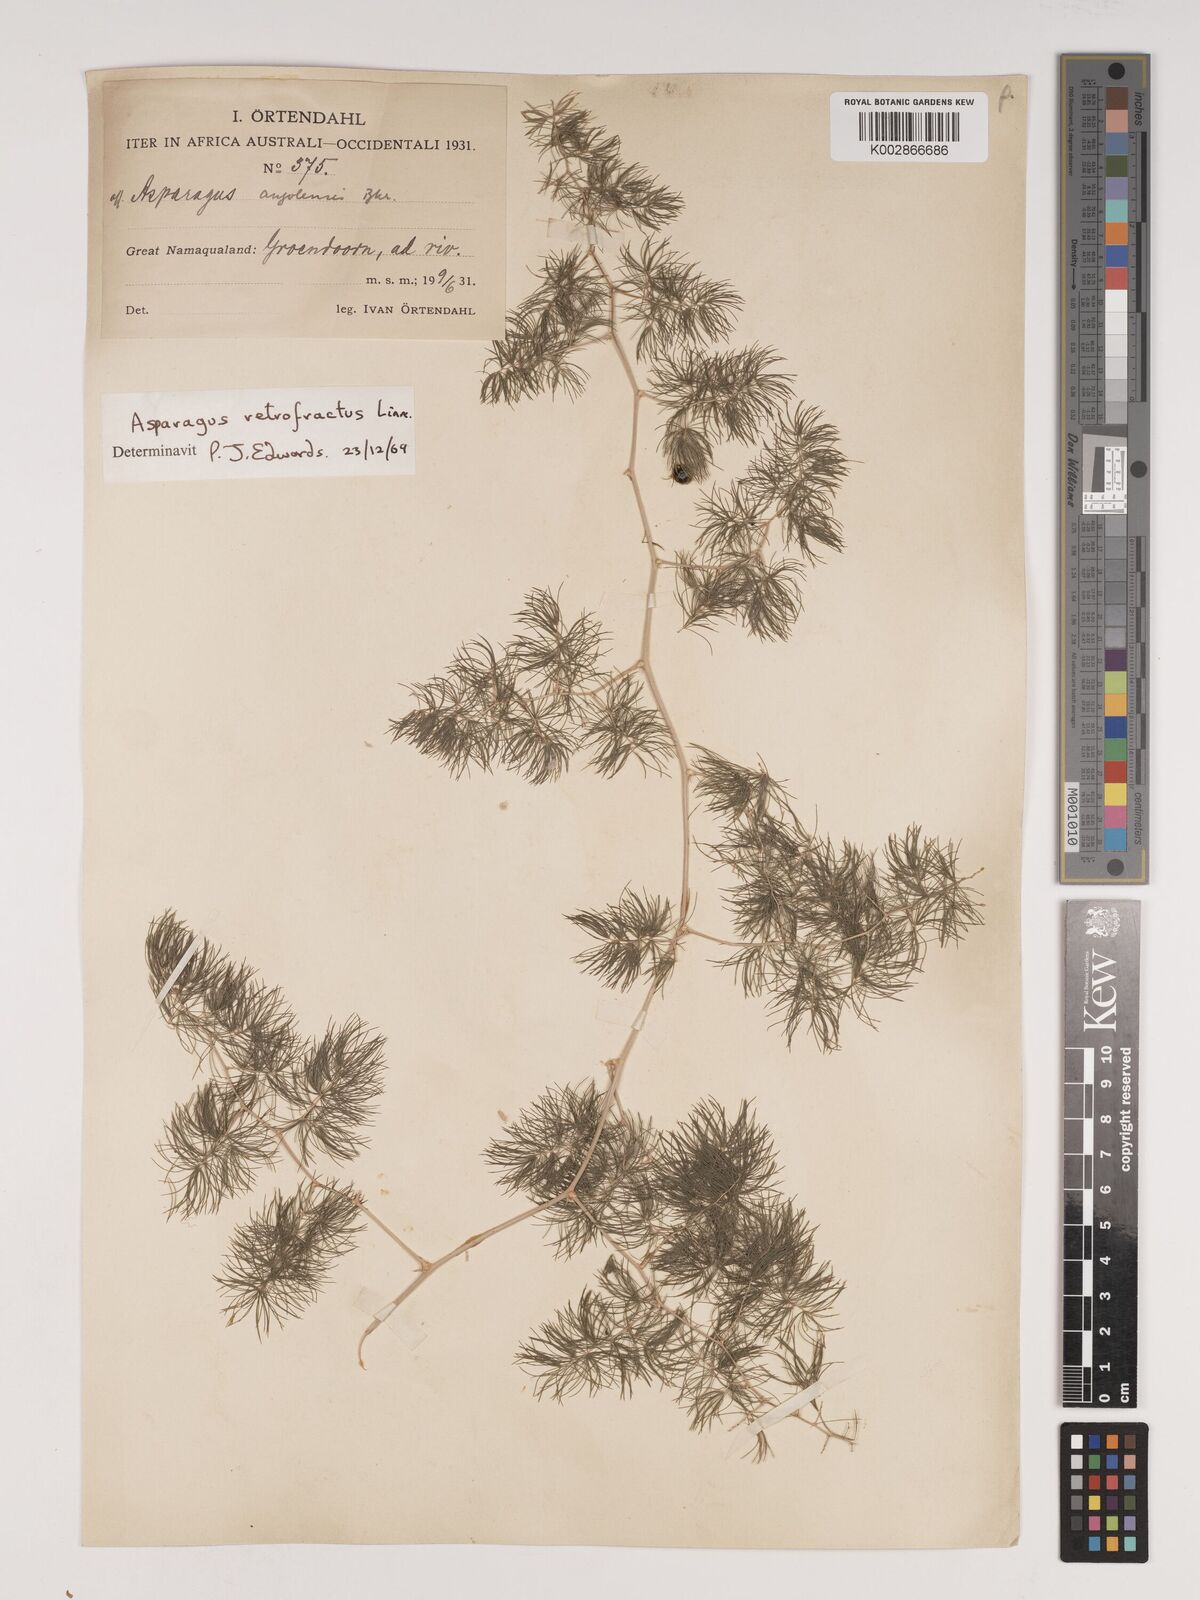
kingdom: Plantae
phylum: Tracheophyta
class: Liliopsida
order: Asparagales
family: Asparagaceae
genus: Asparagus
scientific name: Asparagus retrofractus
